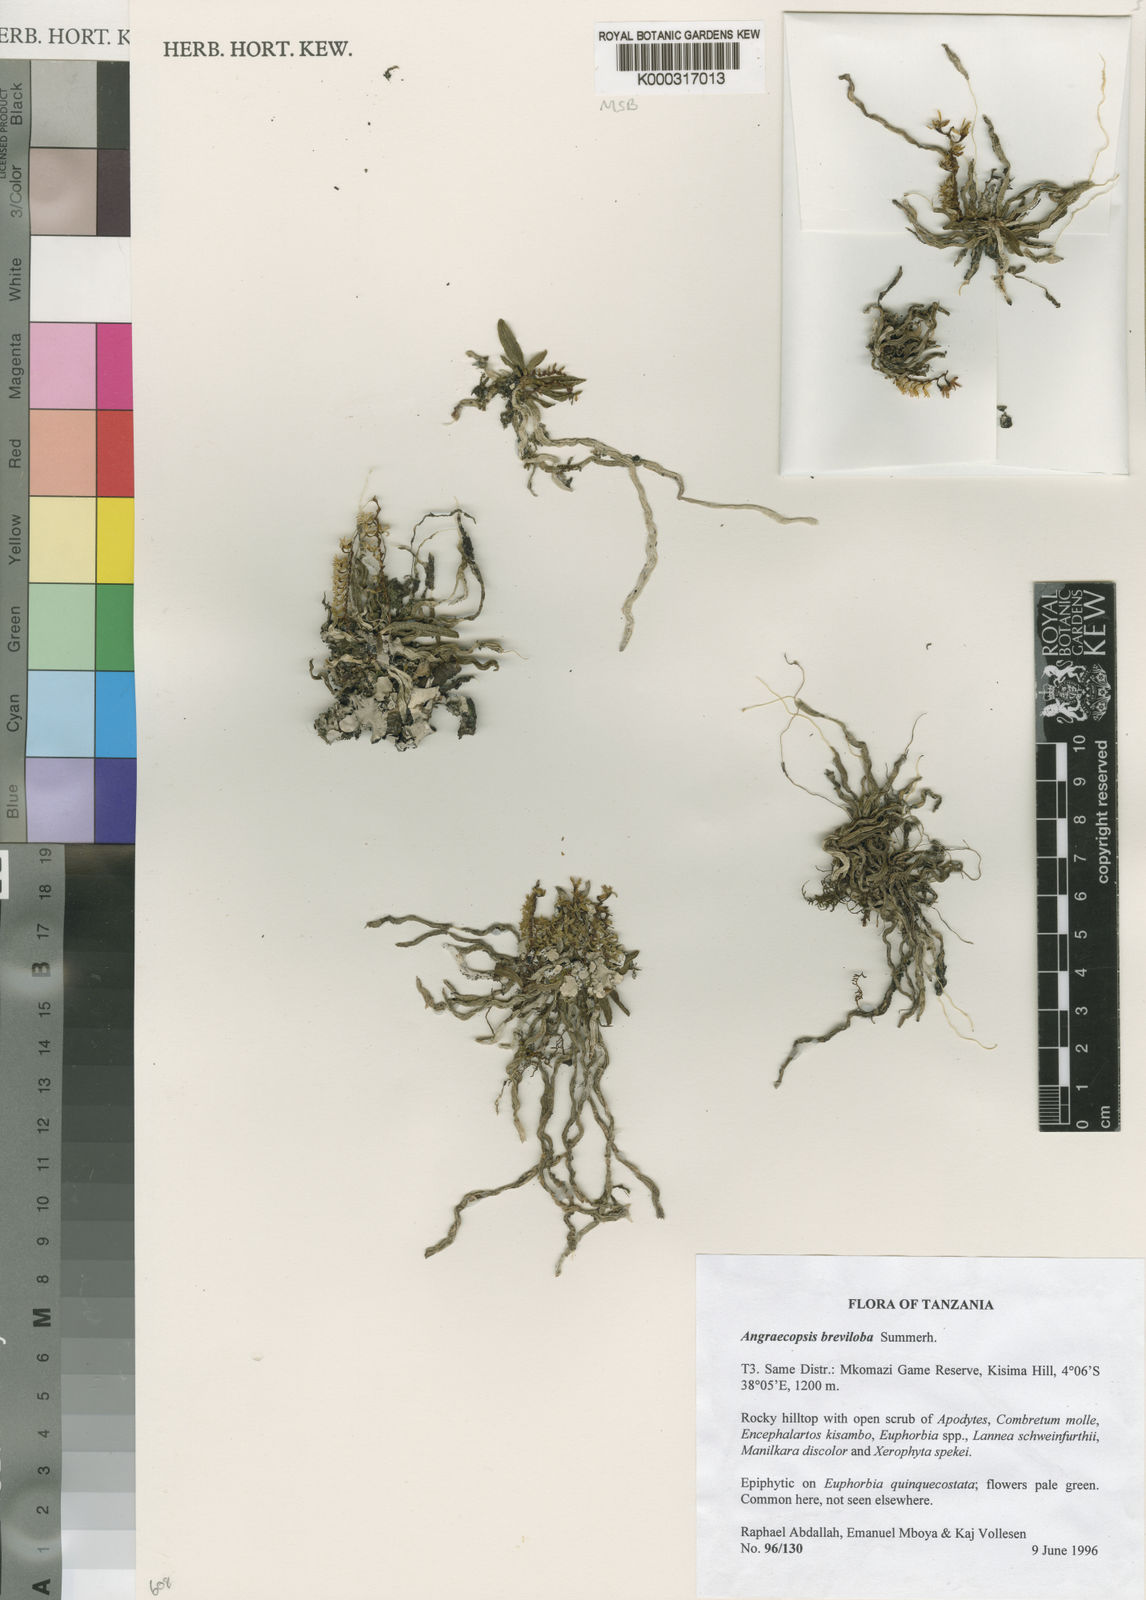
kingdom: Plantae
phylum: Tracheophyta
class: Liliopsida
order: Asparagales
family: Orchidaceae
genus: Sphyrarhynchus
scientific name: Sphyrarhynchus brevilobus
